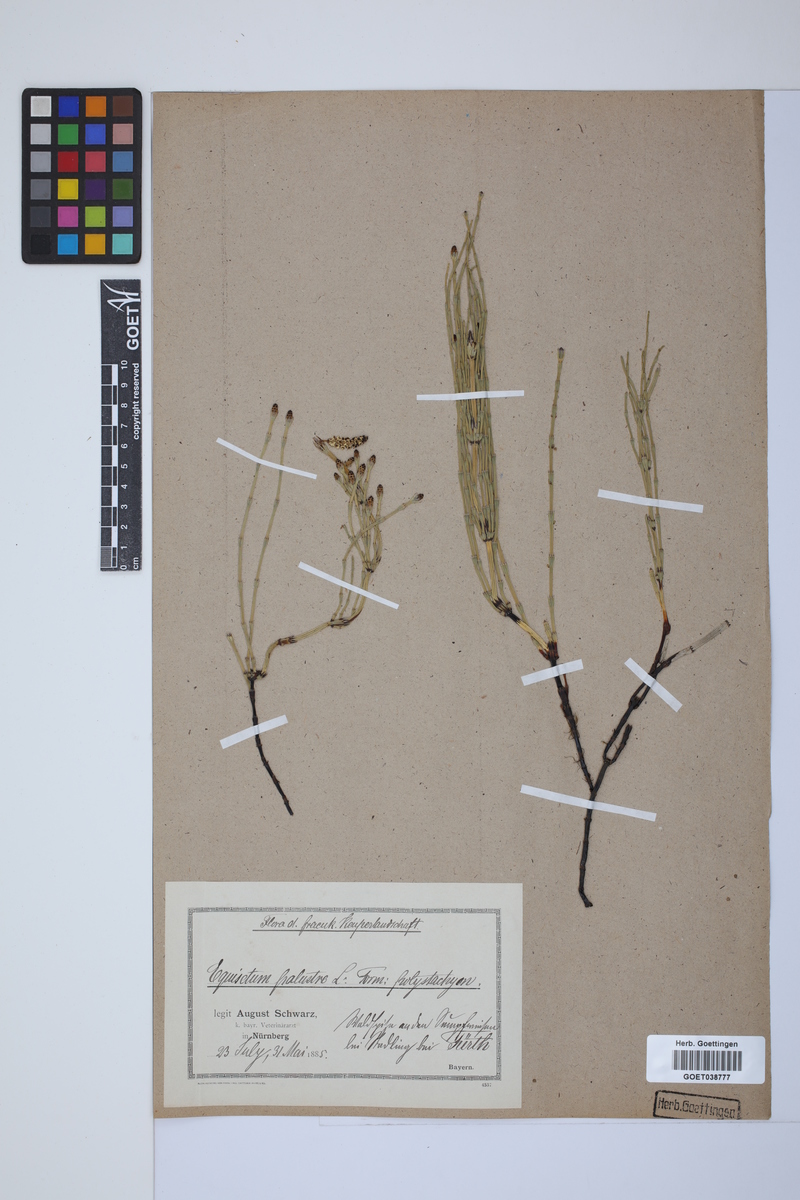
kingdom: Plantae
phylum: Tracheophyta
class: Polypodiopsida
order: Equisetales
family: Equisetaceae
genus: Equisetum
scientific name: Equisetum palustre
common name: Marsh horsetail
